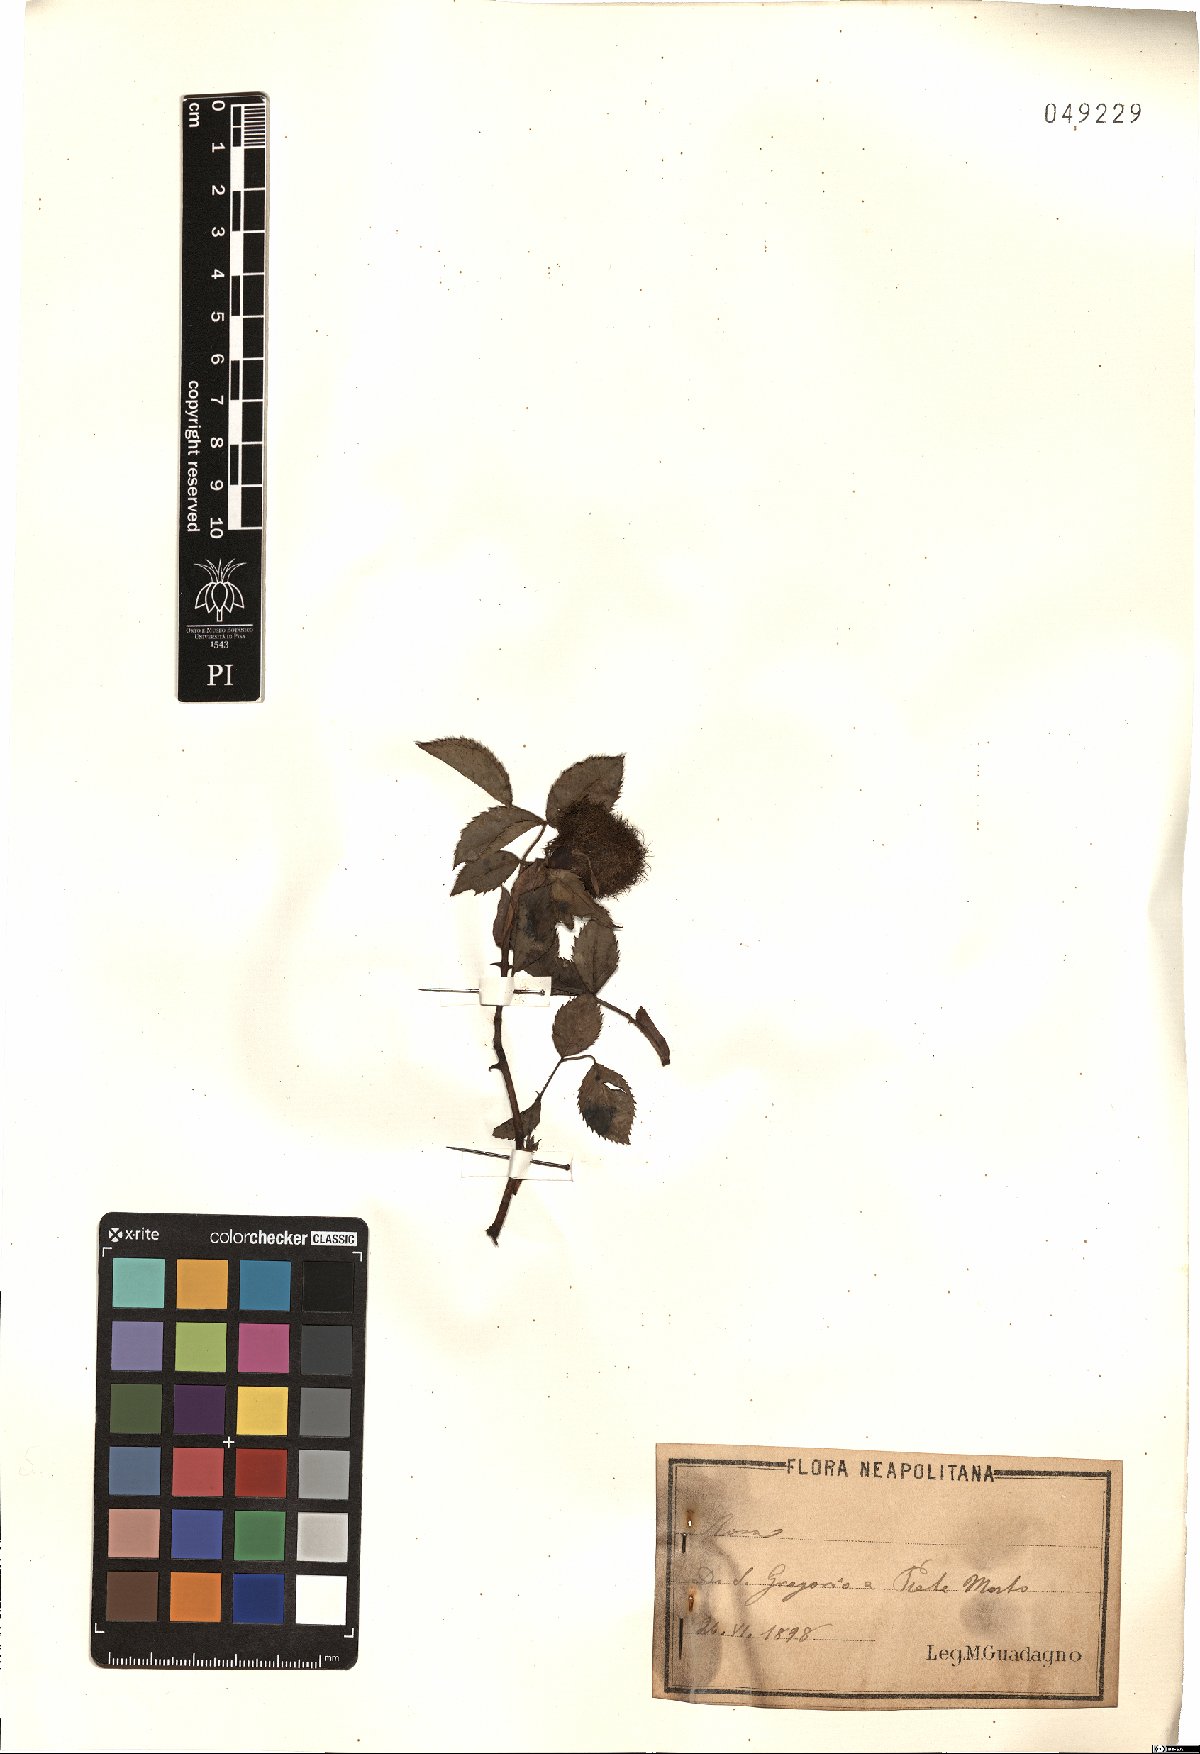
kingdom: Plantae
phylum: Tracheophyta
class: Magnoliopsida
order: Rosales
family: Rosaceae
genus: Rosa
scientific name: Rosa
